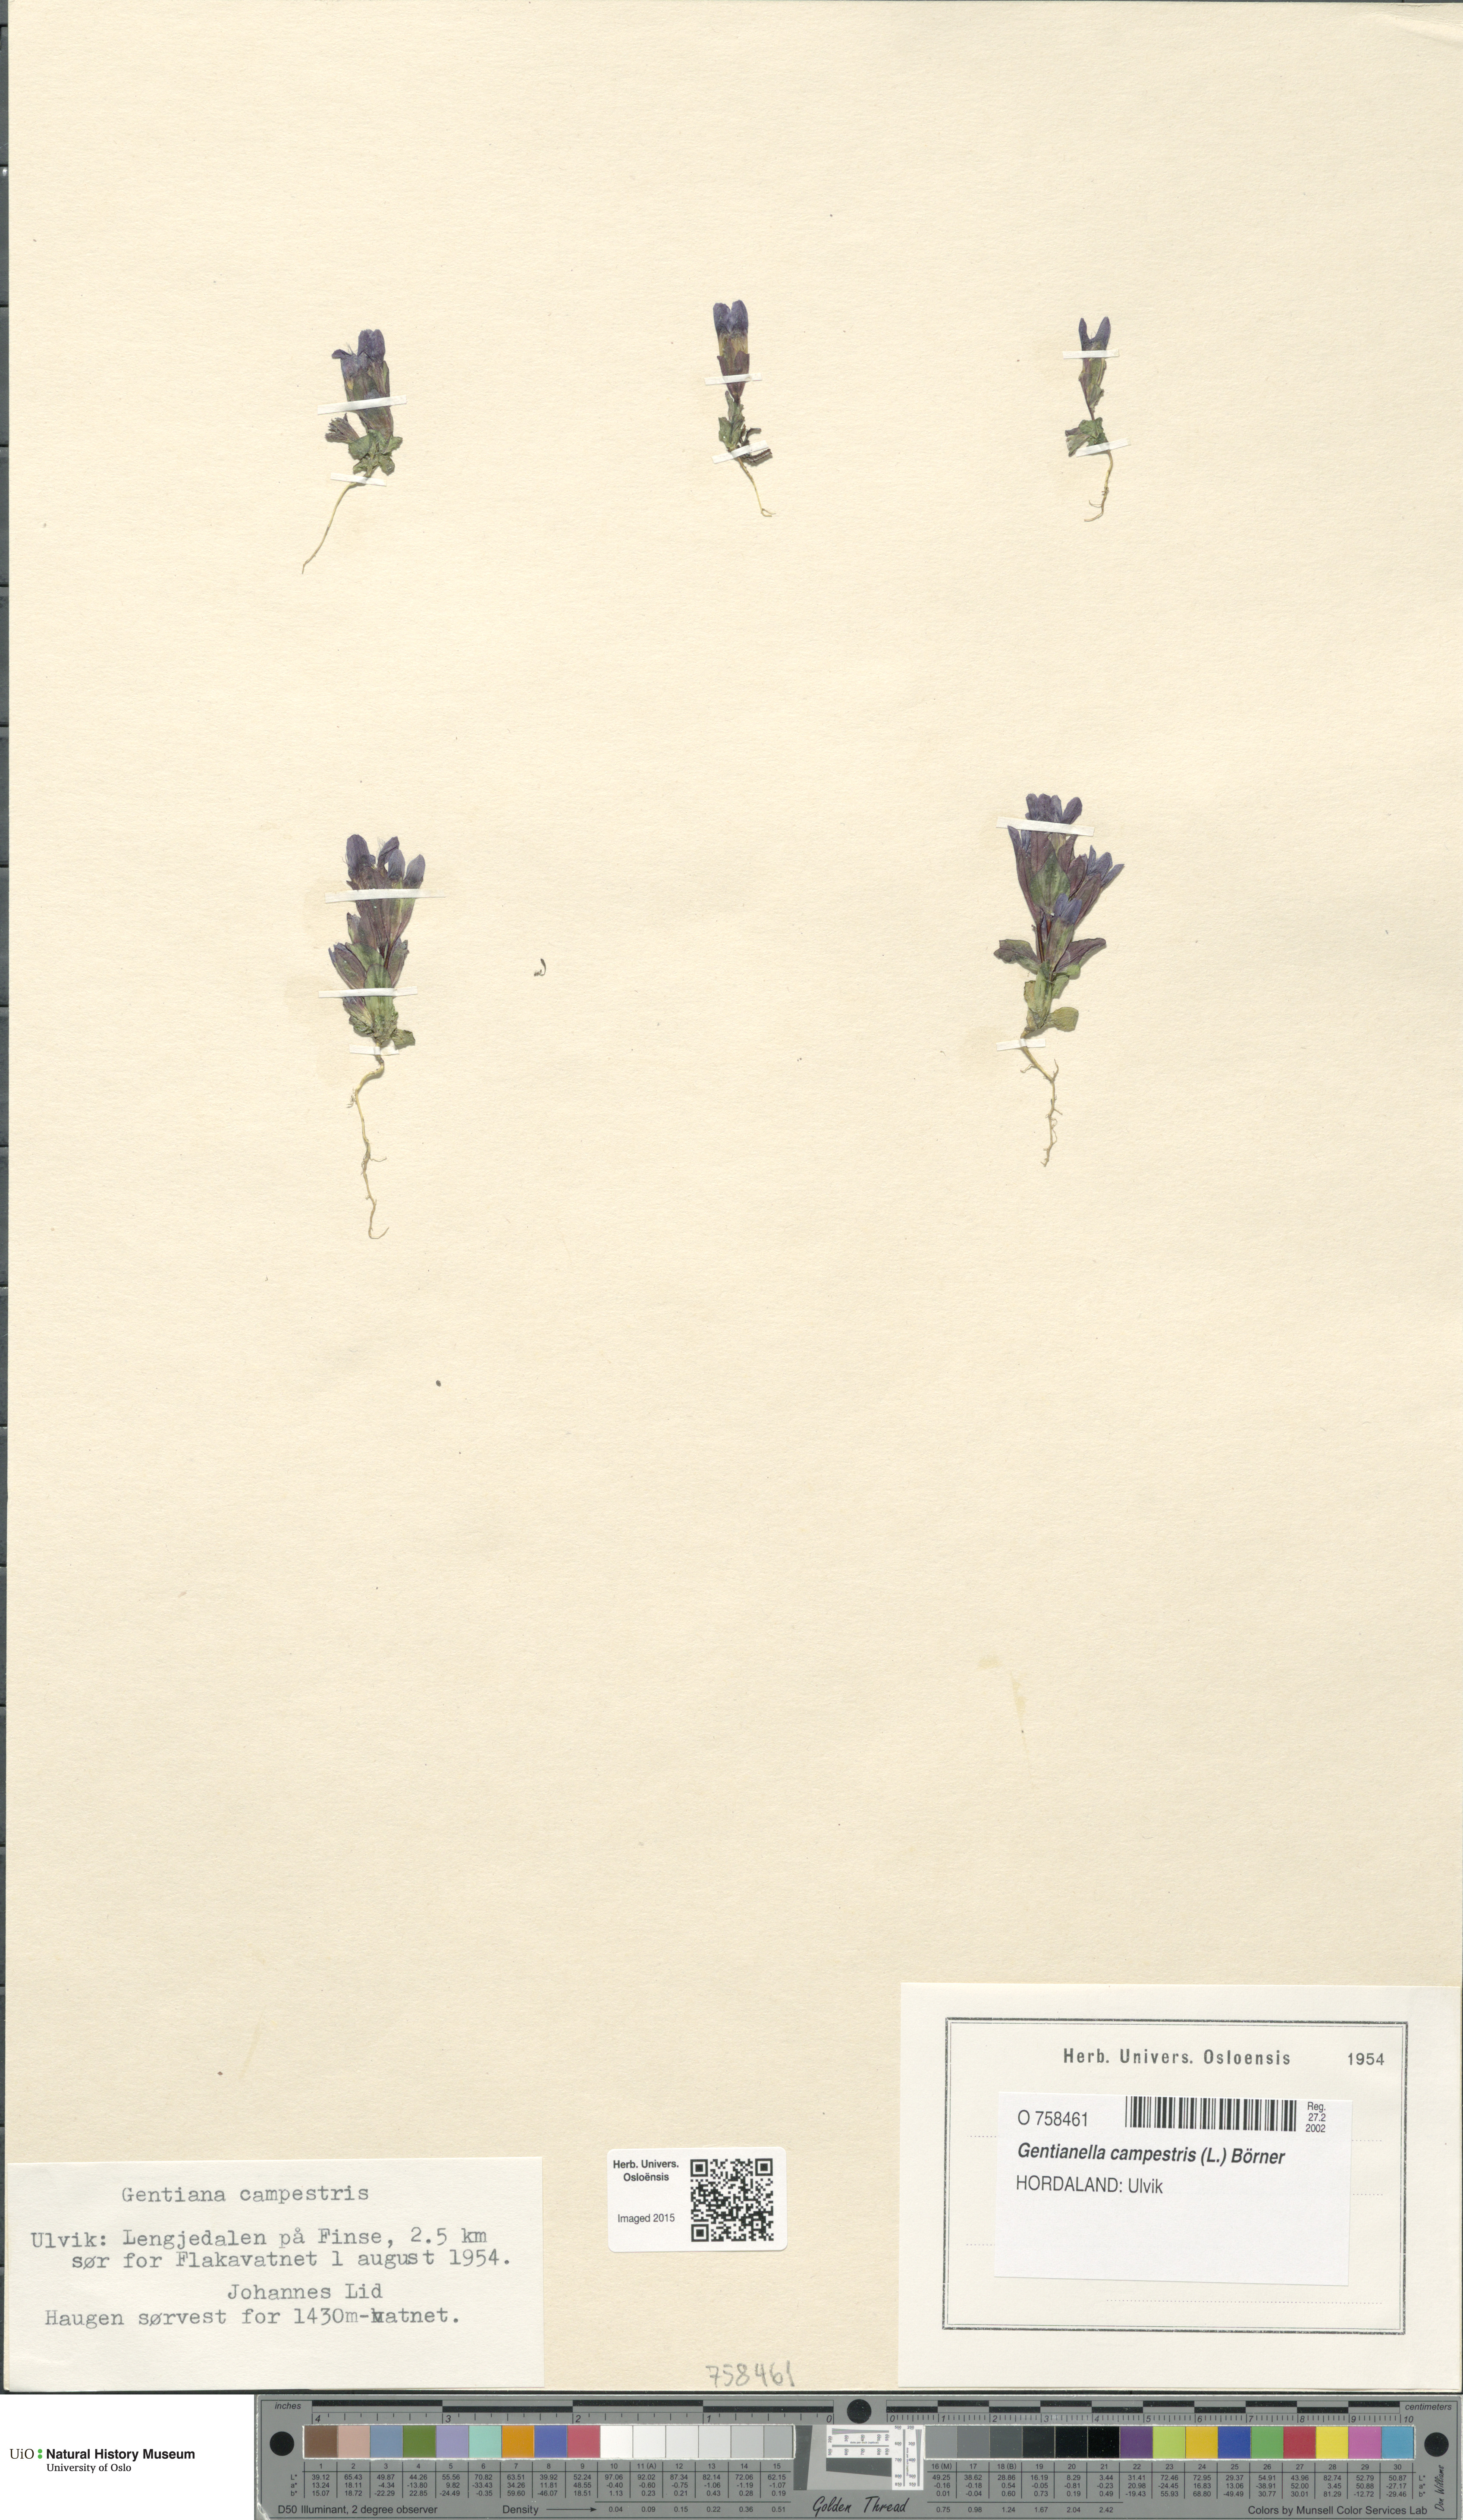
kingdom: Plantae
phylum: Tracheophyta
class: Magnoliopsida
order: Gentianales
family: Gentianaceae
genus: Gentianella
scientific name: Gentianella campestris
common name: Field gentian
